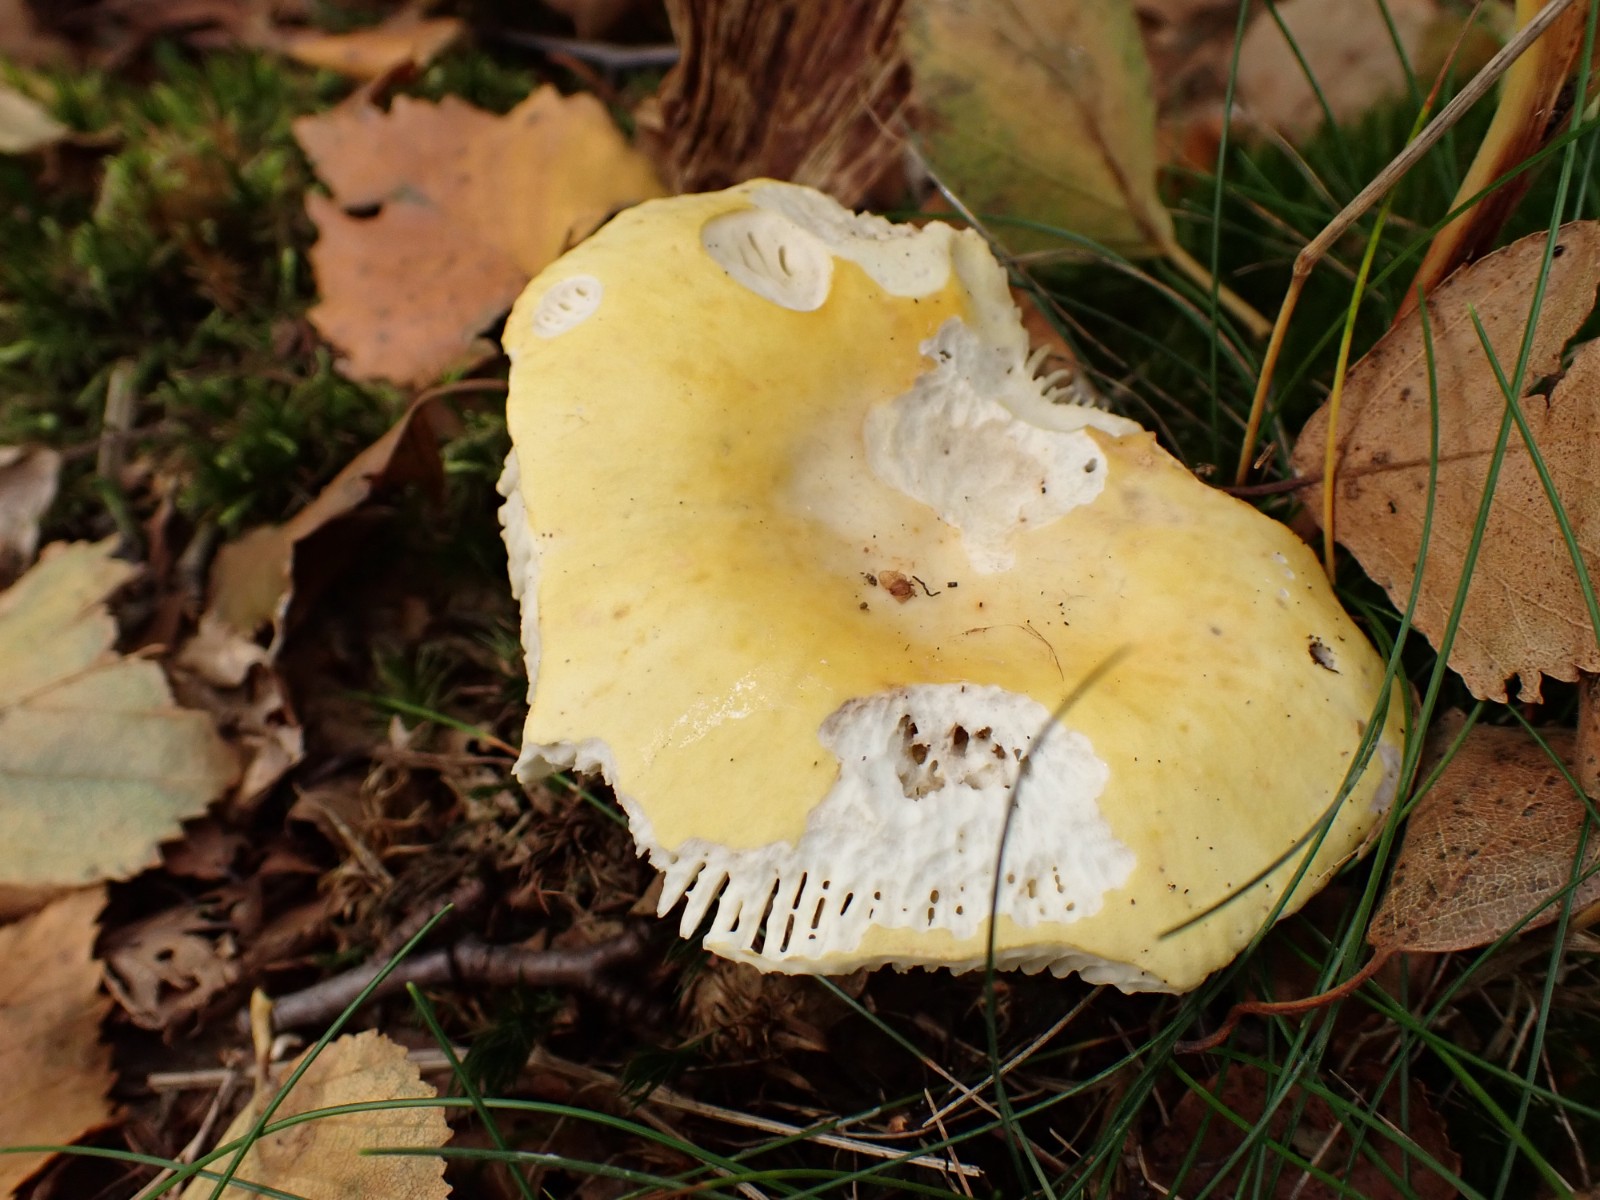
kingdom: Fungi
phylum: Basidiomycota
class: Agaricomycetes
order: Russulales
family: Russulaceae
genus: Russula
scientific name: Russula claroflava
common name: birke-skørhat
